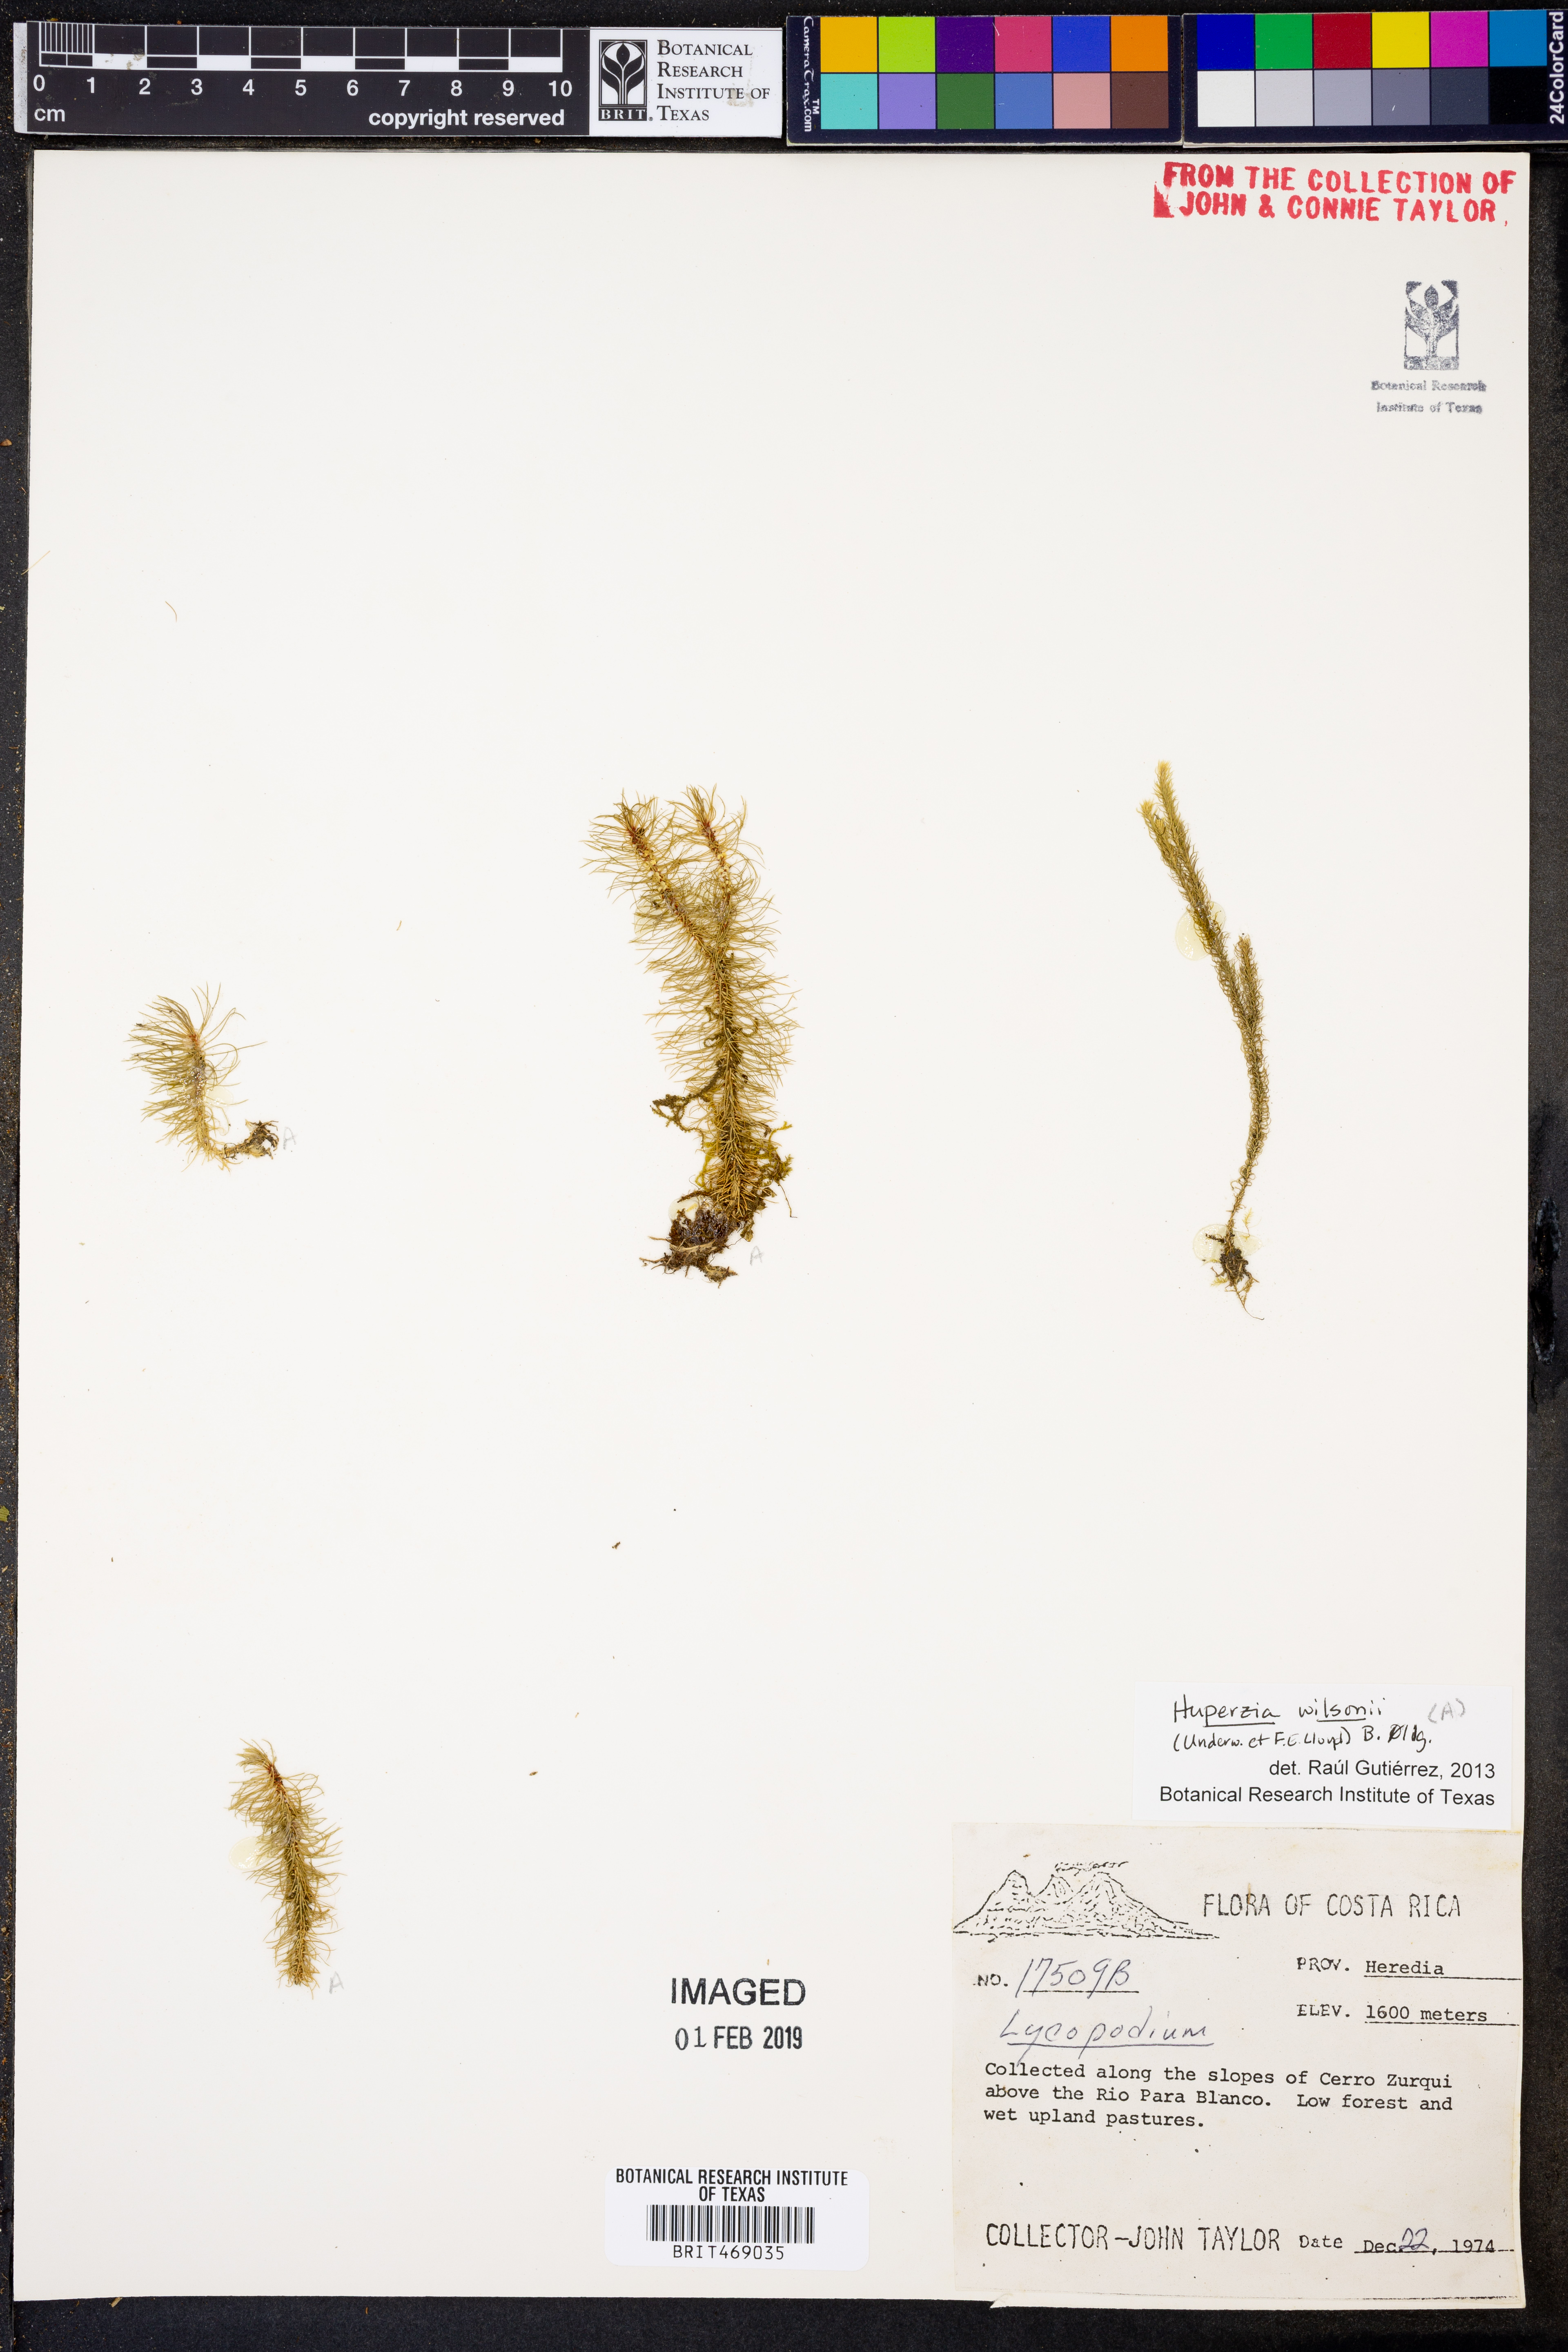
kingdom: Plantae
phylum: Tracheophyta
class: Lycopodiopsida
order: Lycopodiales
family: Lycopodiaceae
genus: Phlegmariurus
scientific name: Phlegmariurus wilsonii
